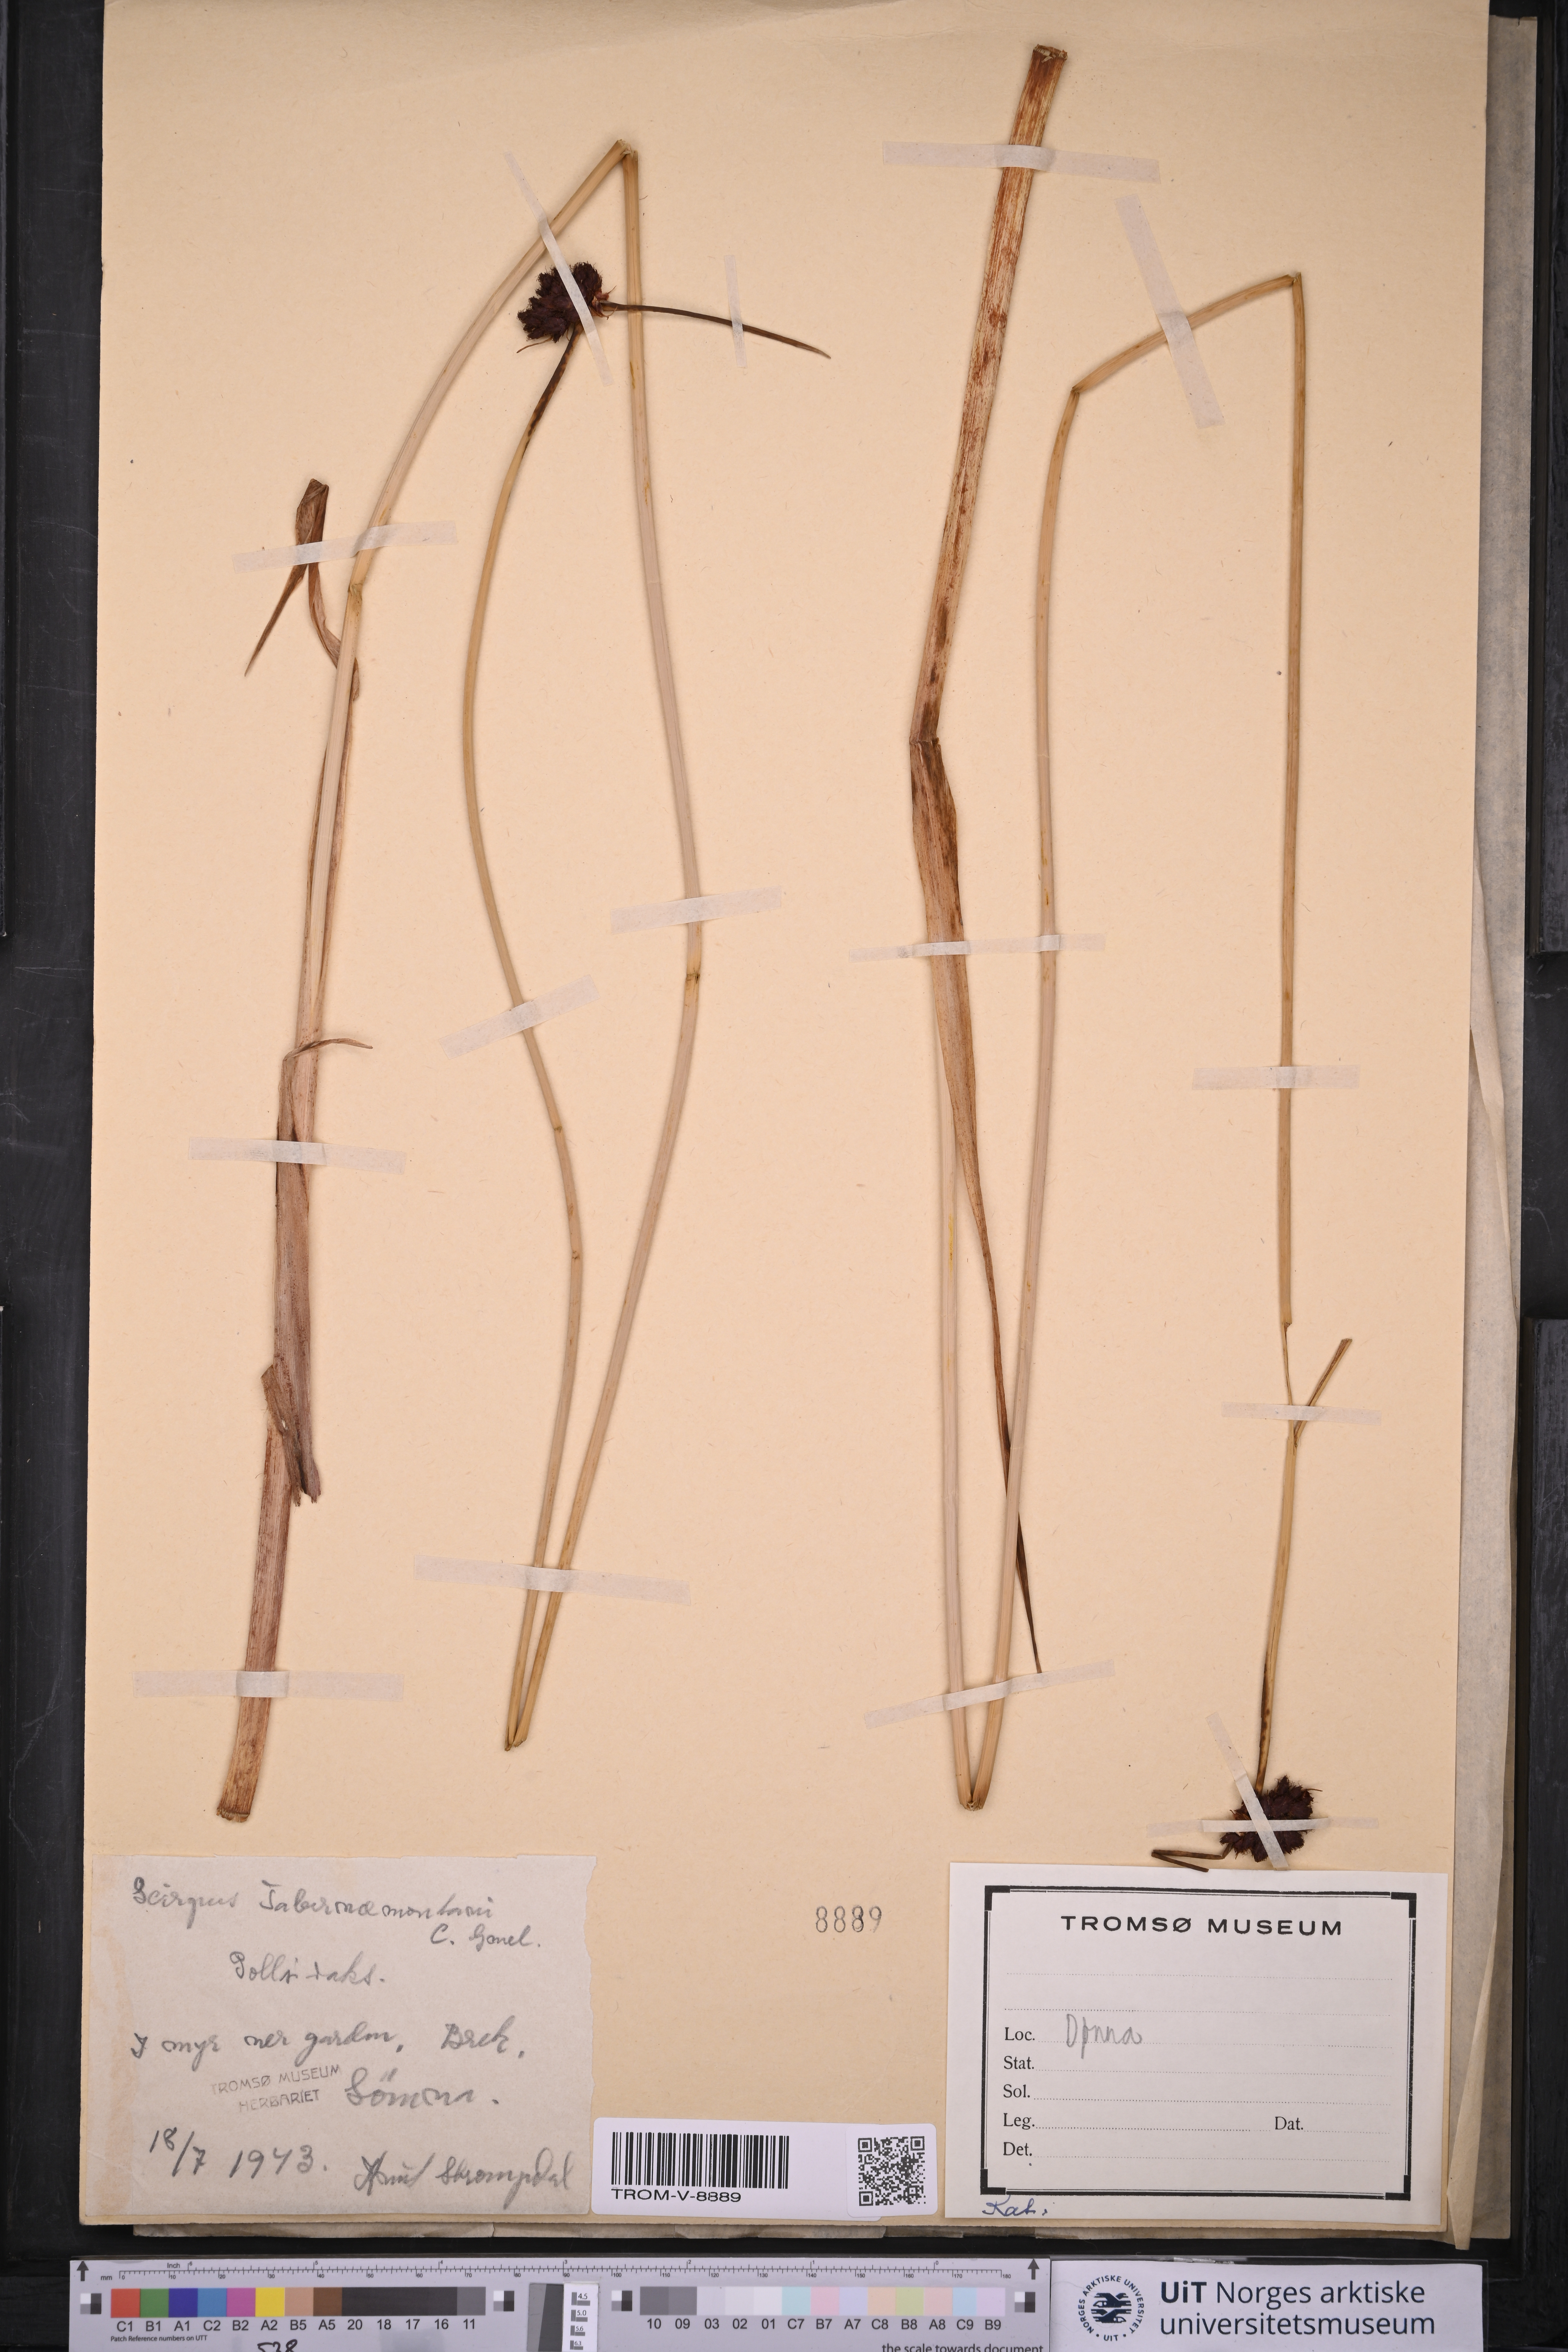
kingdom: Plantae
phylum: Tracheophyta
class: Liliopsida
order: Poales
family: Cyperaceae
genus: Schoenoplectus
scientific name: Schoenoplectus tabernaemontani
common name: Grey club-rush
